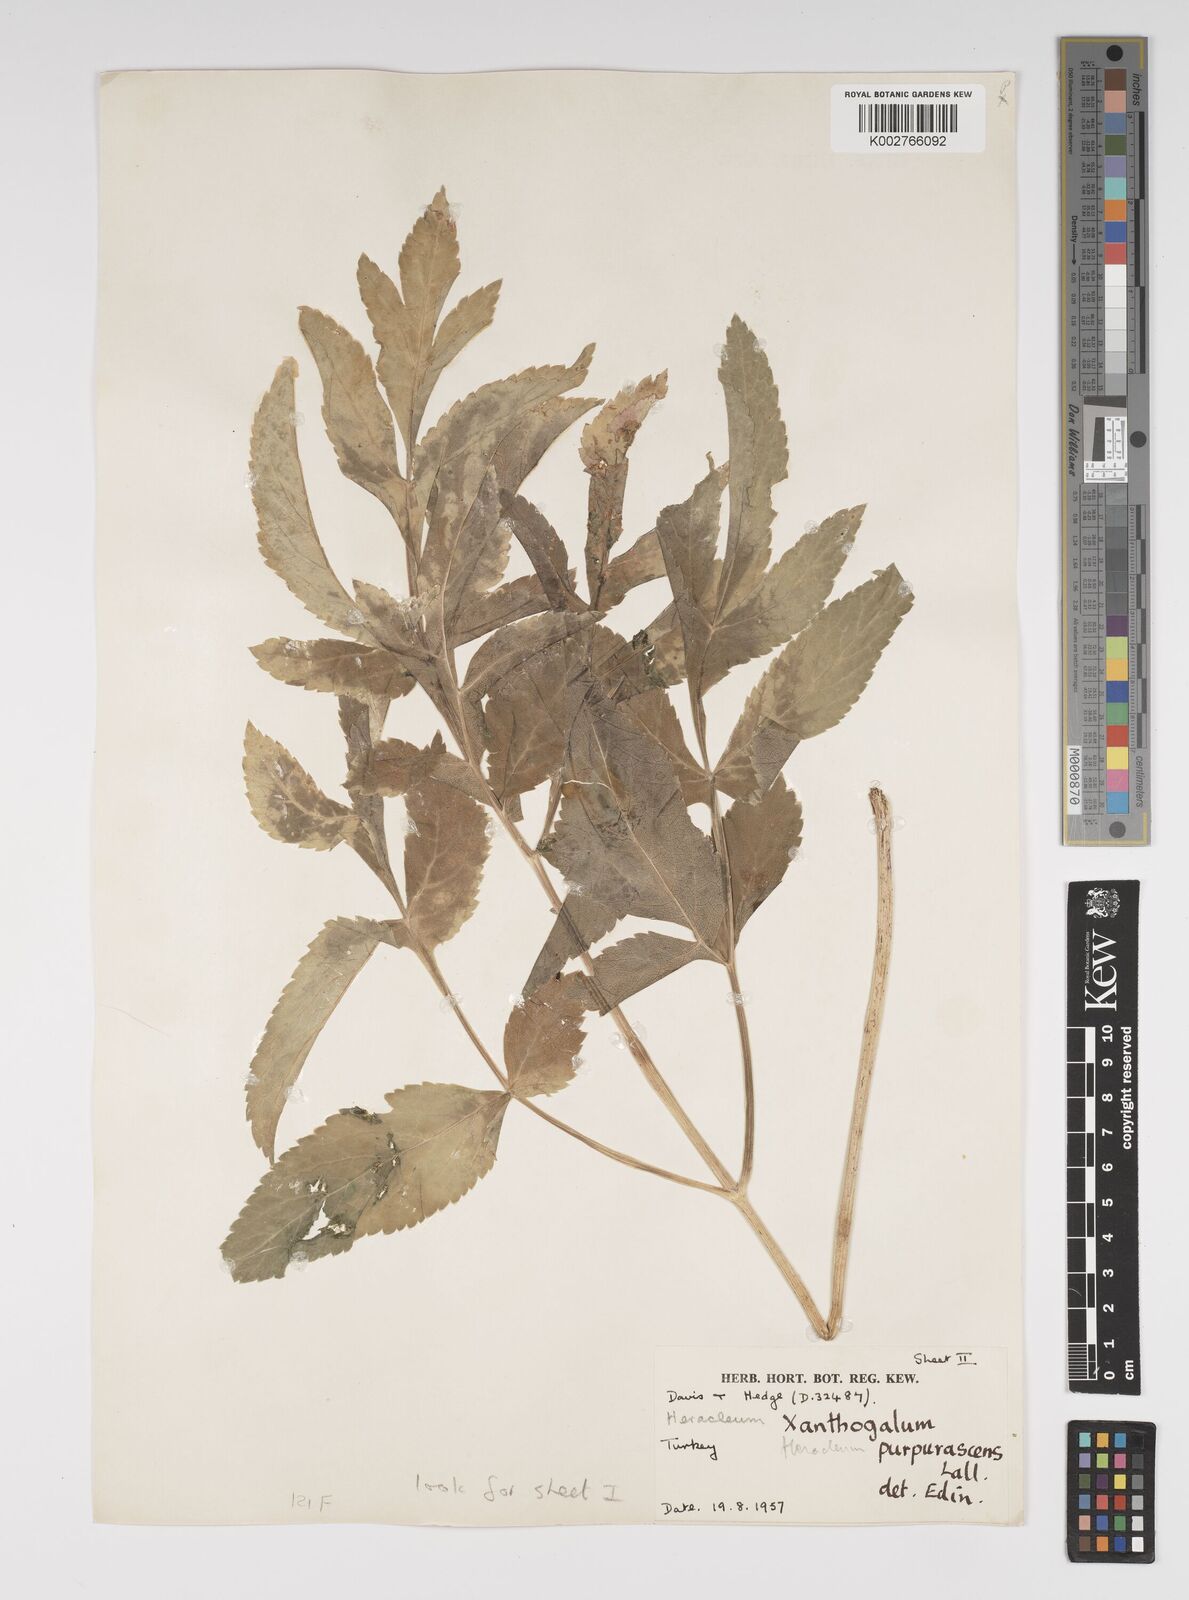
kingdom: Plantae
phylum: Tracheophyta
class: Magnoliopsida
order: Apiales
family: Apiaceae
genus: Xanthogalum
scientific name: Xanthogalum purpurascens
